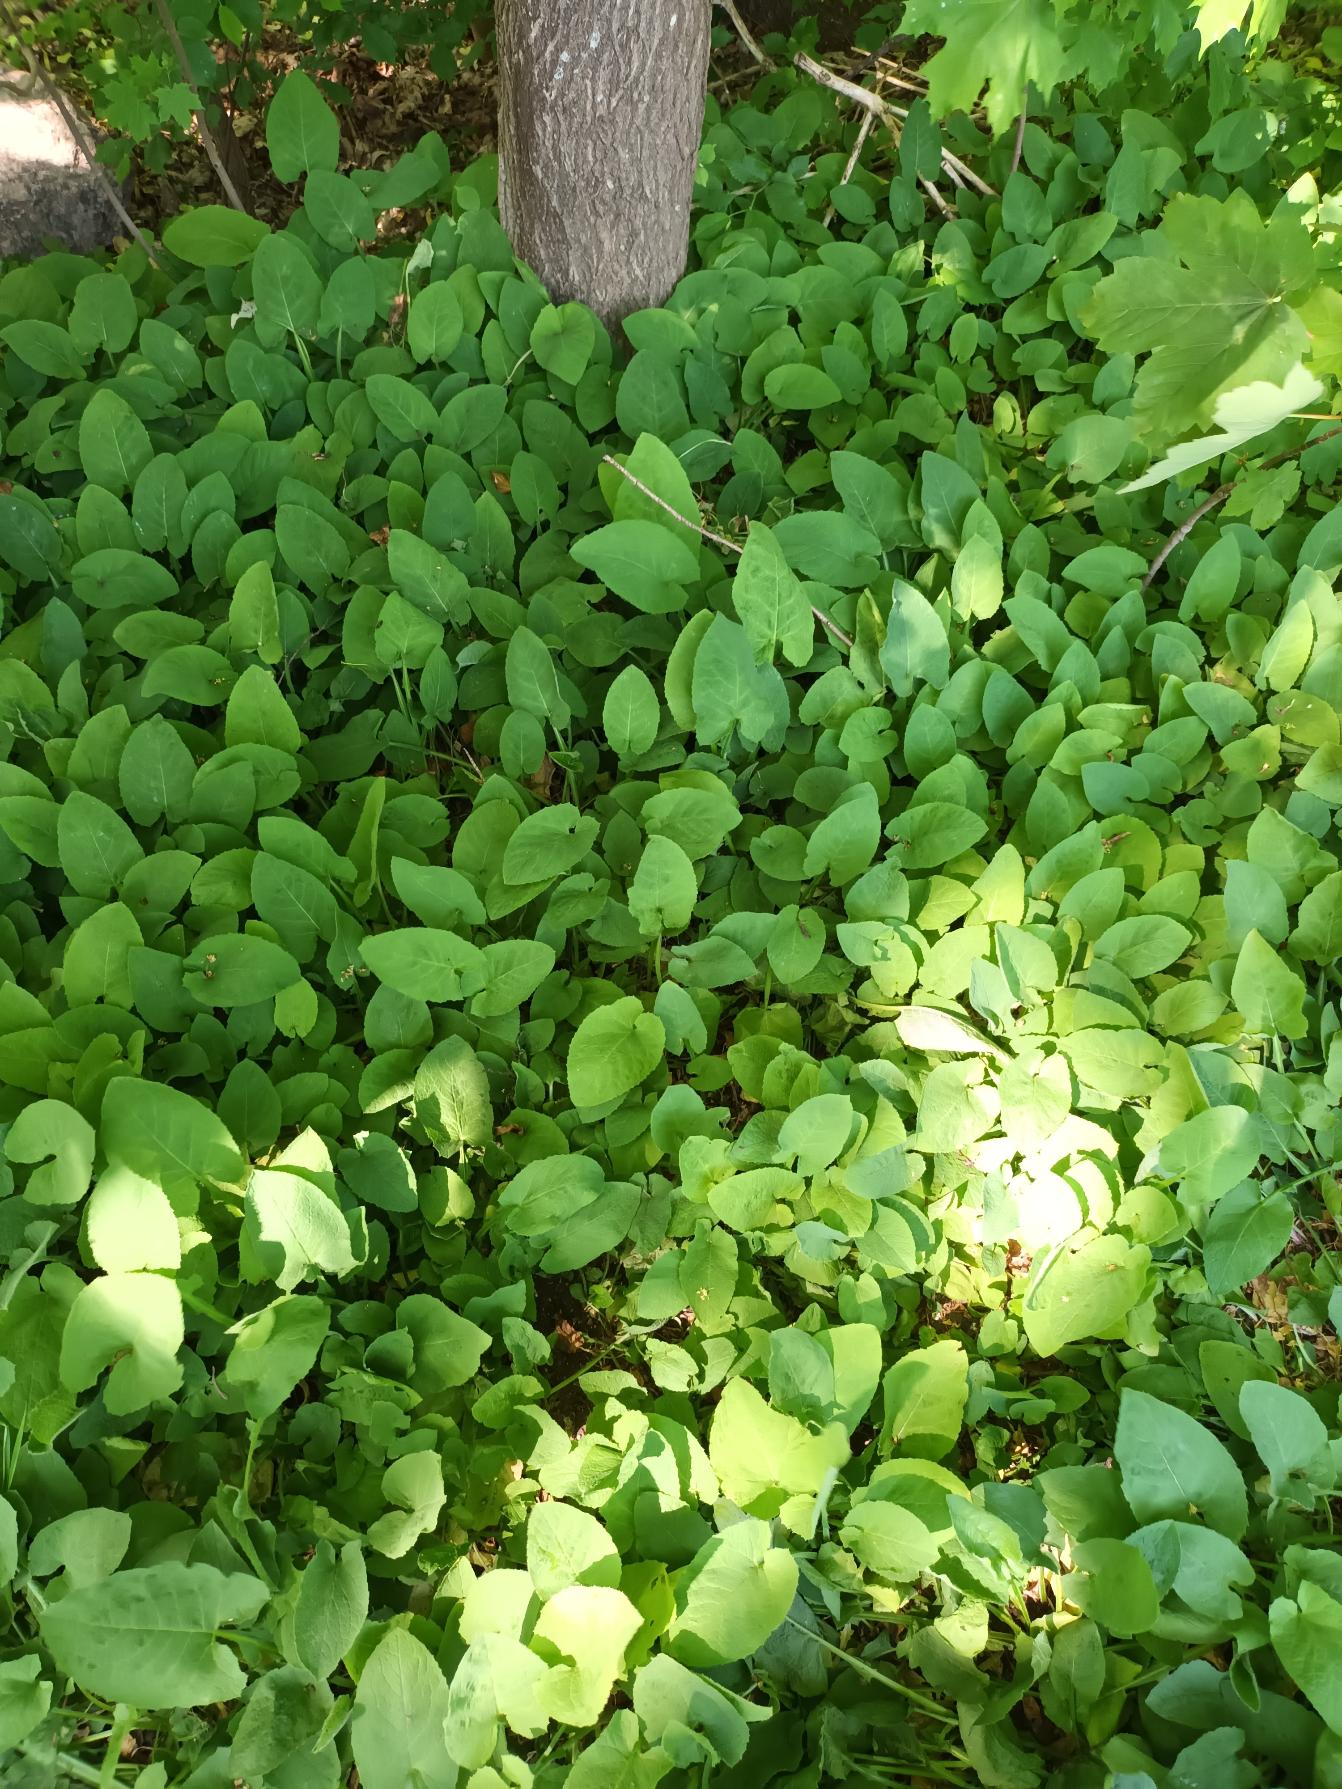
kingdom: Plantae
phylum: Tracheophyta
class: Magnoliopsida
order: Asterales
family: Asteraceae
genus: Lactuca
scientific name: Lactuca macrophylla
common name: Kæmpe-salat
